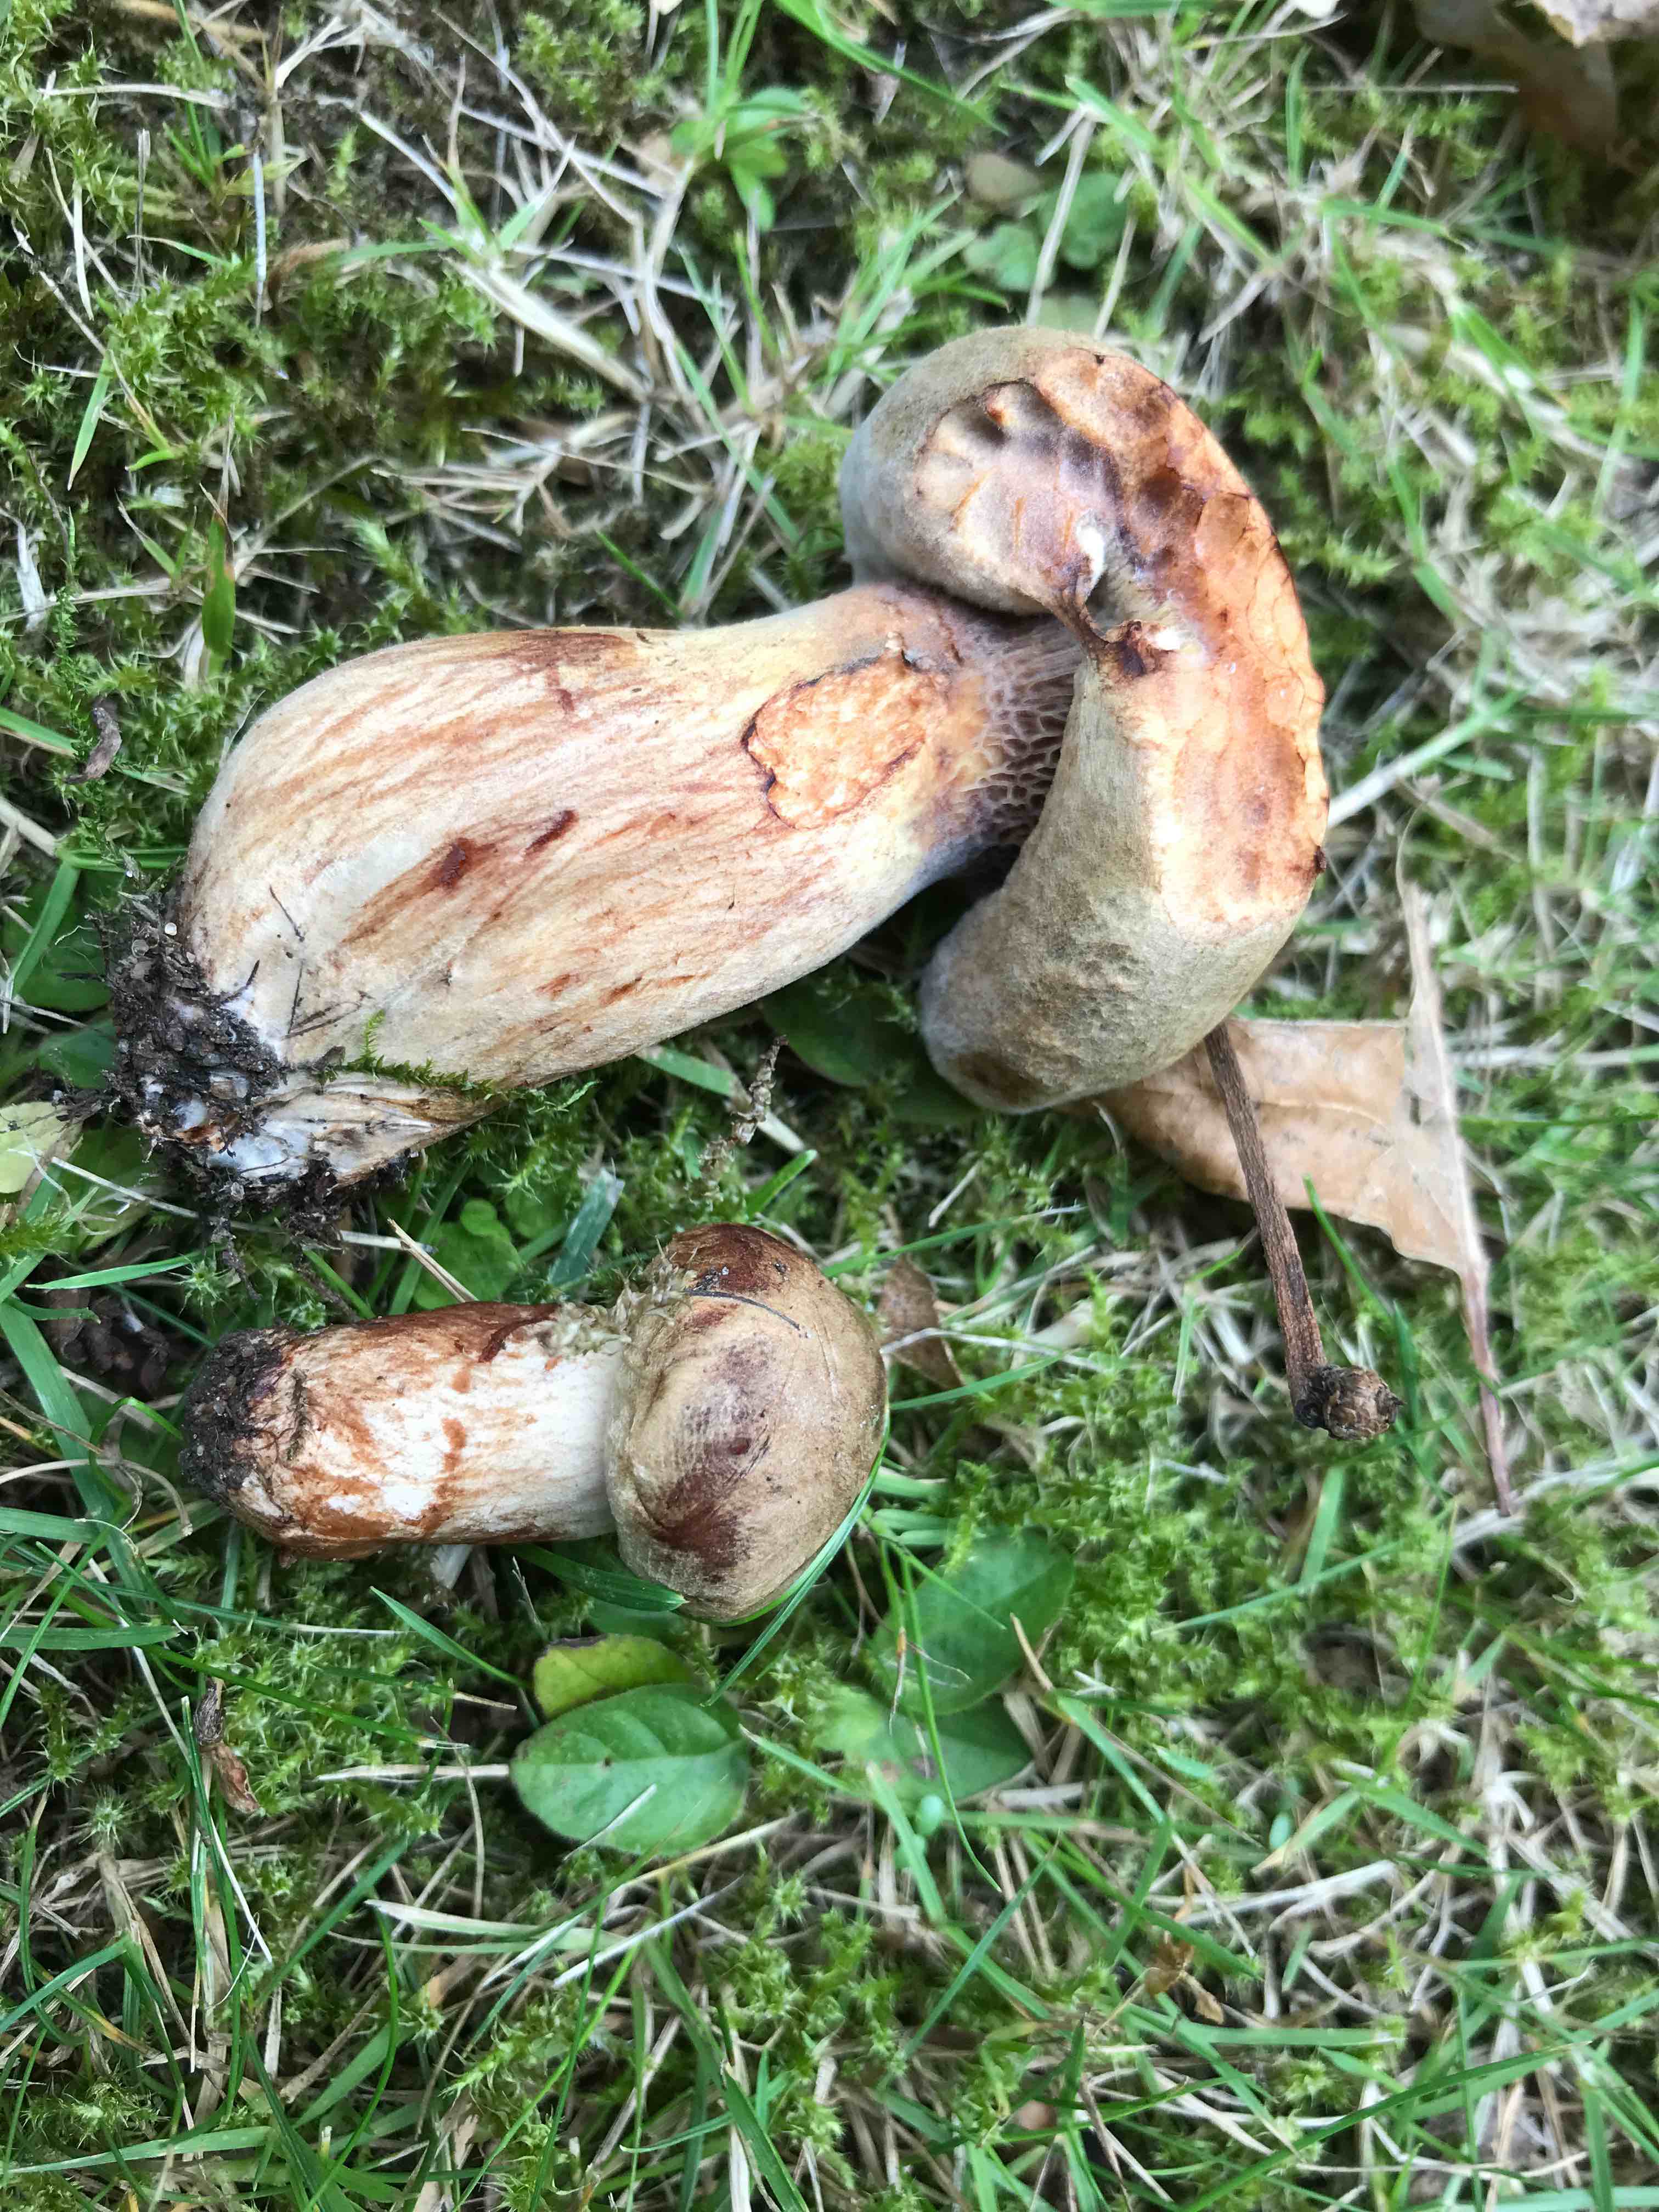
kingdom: Fungi
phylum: Basidiomycota
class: Agaricomycetes
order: Boletales
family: Paxillaceae
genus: Paxillus
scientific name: Paxillus
